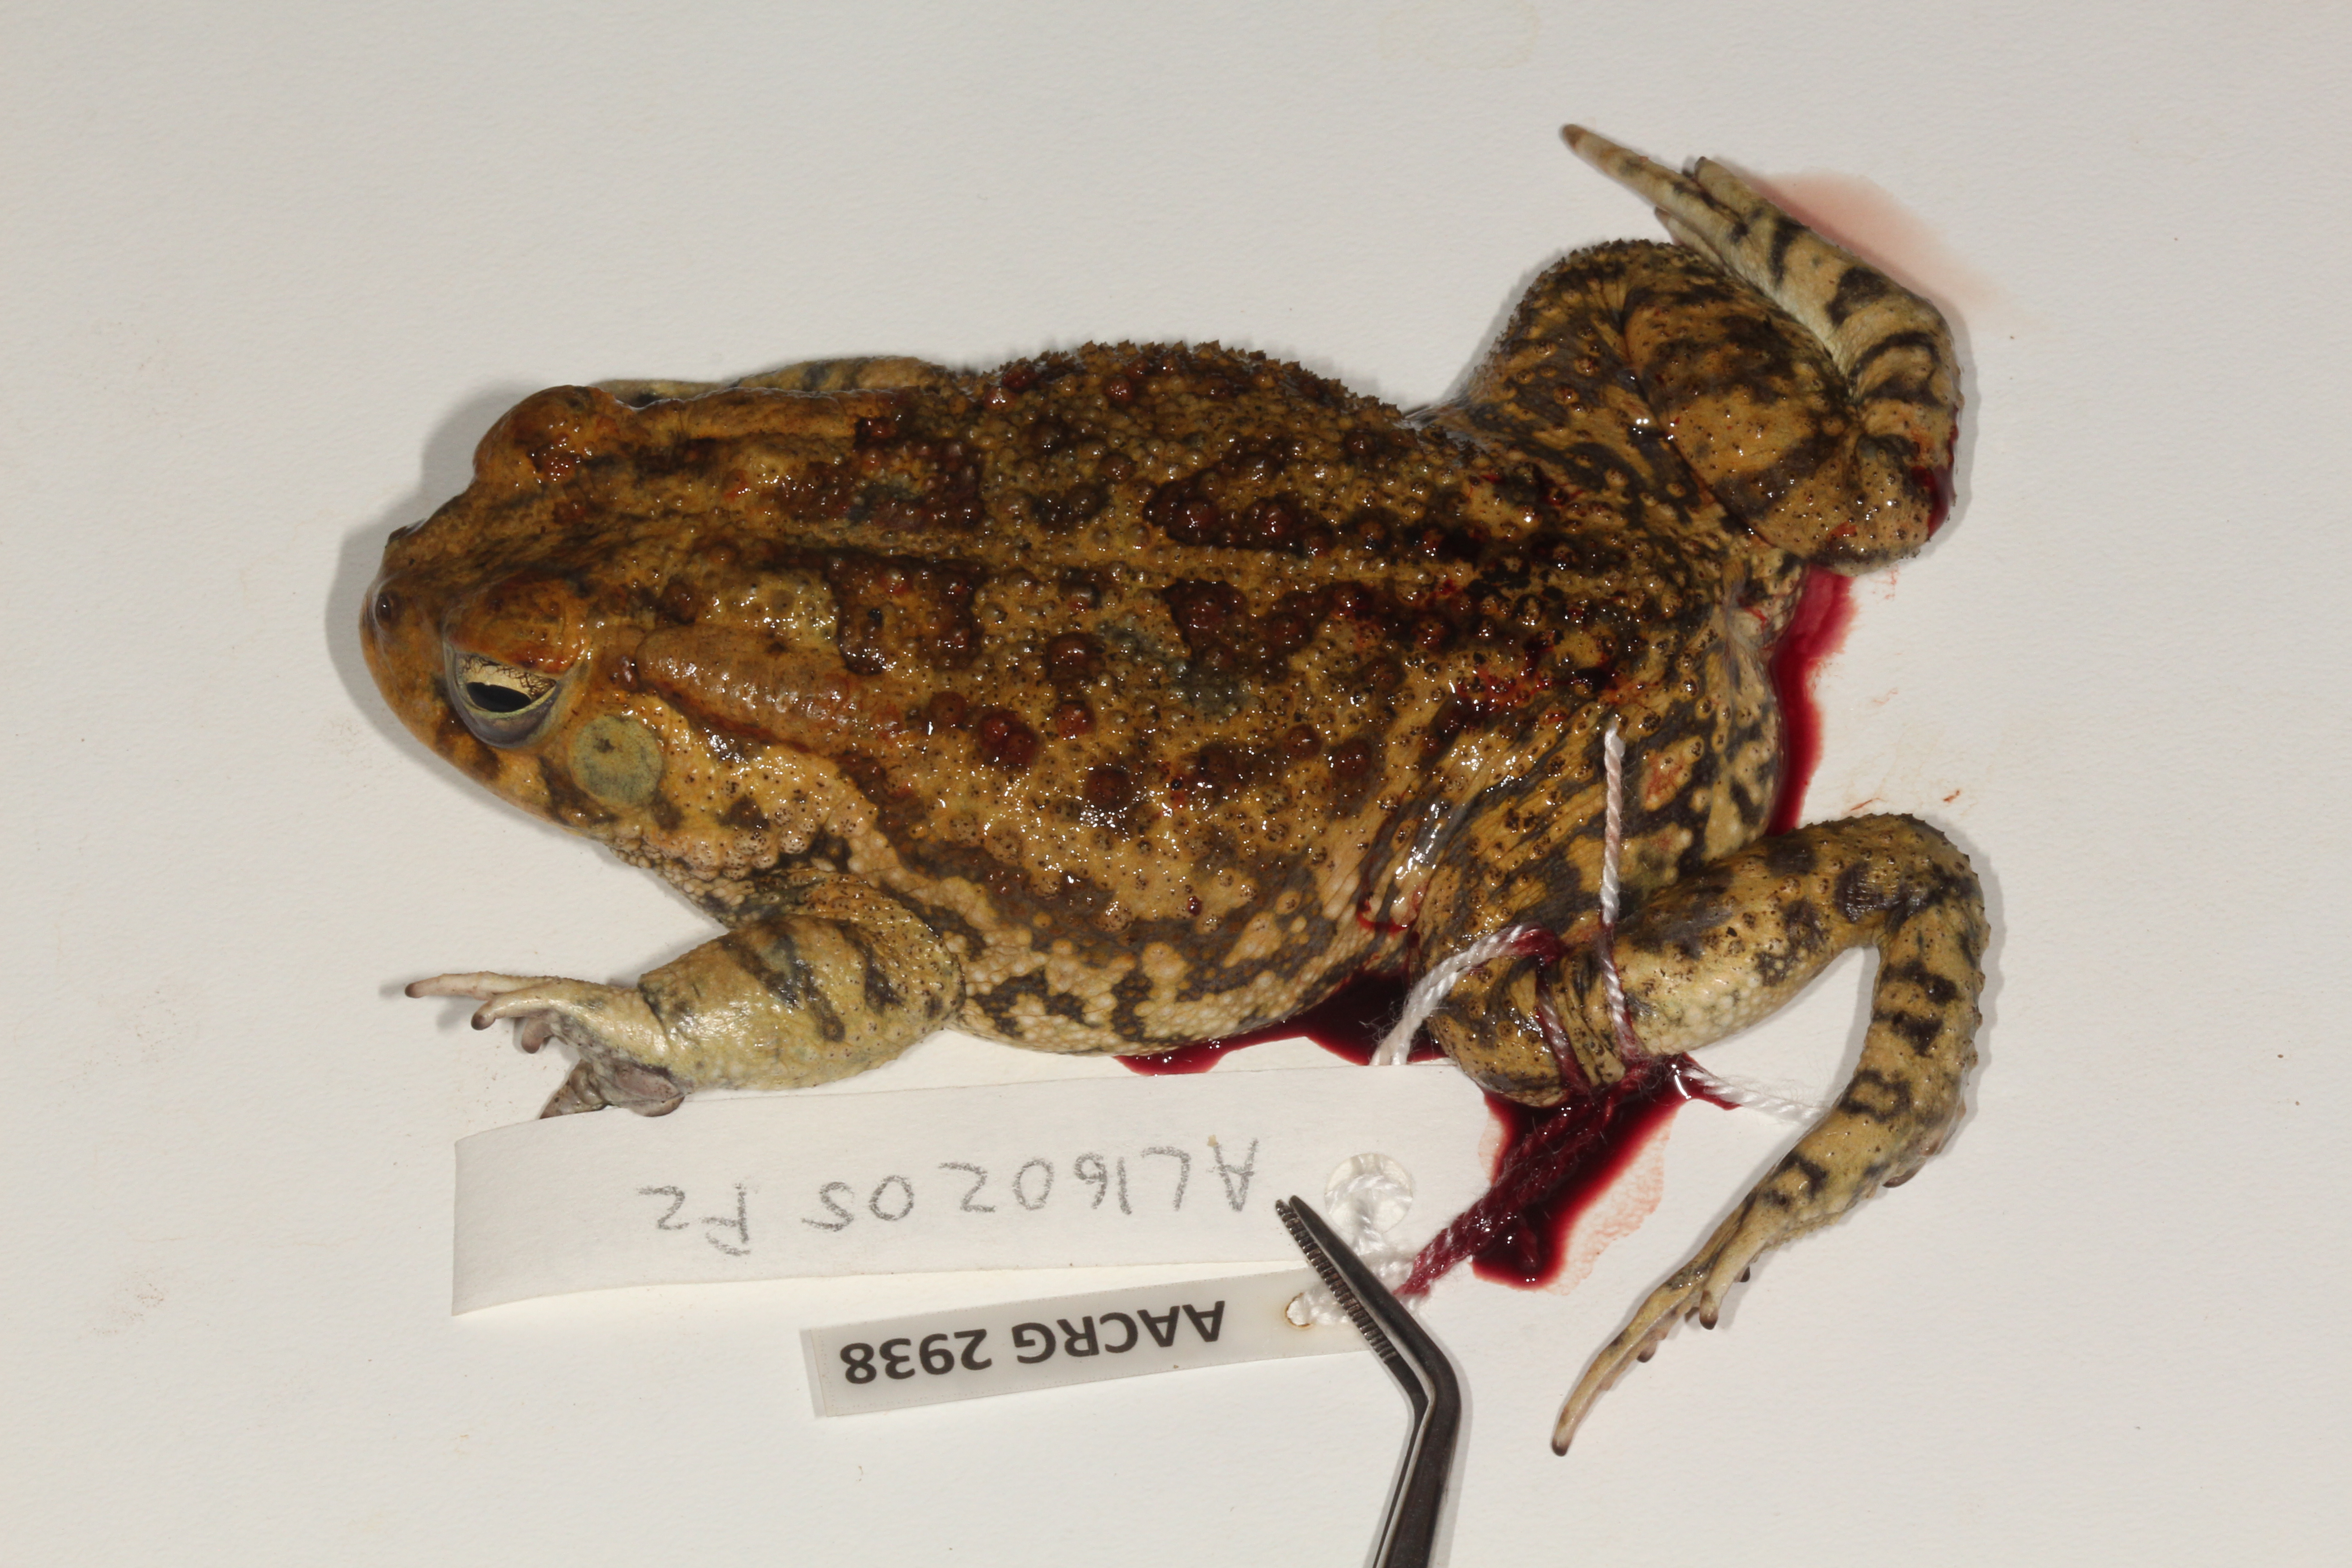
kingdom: Animalia
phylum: Chordata
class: Amphibia
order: Anura
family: Bufonidae
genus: Sclerophrys
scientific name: Sclerophrys garmani
